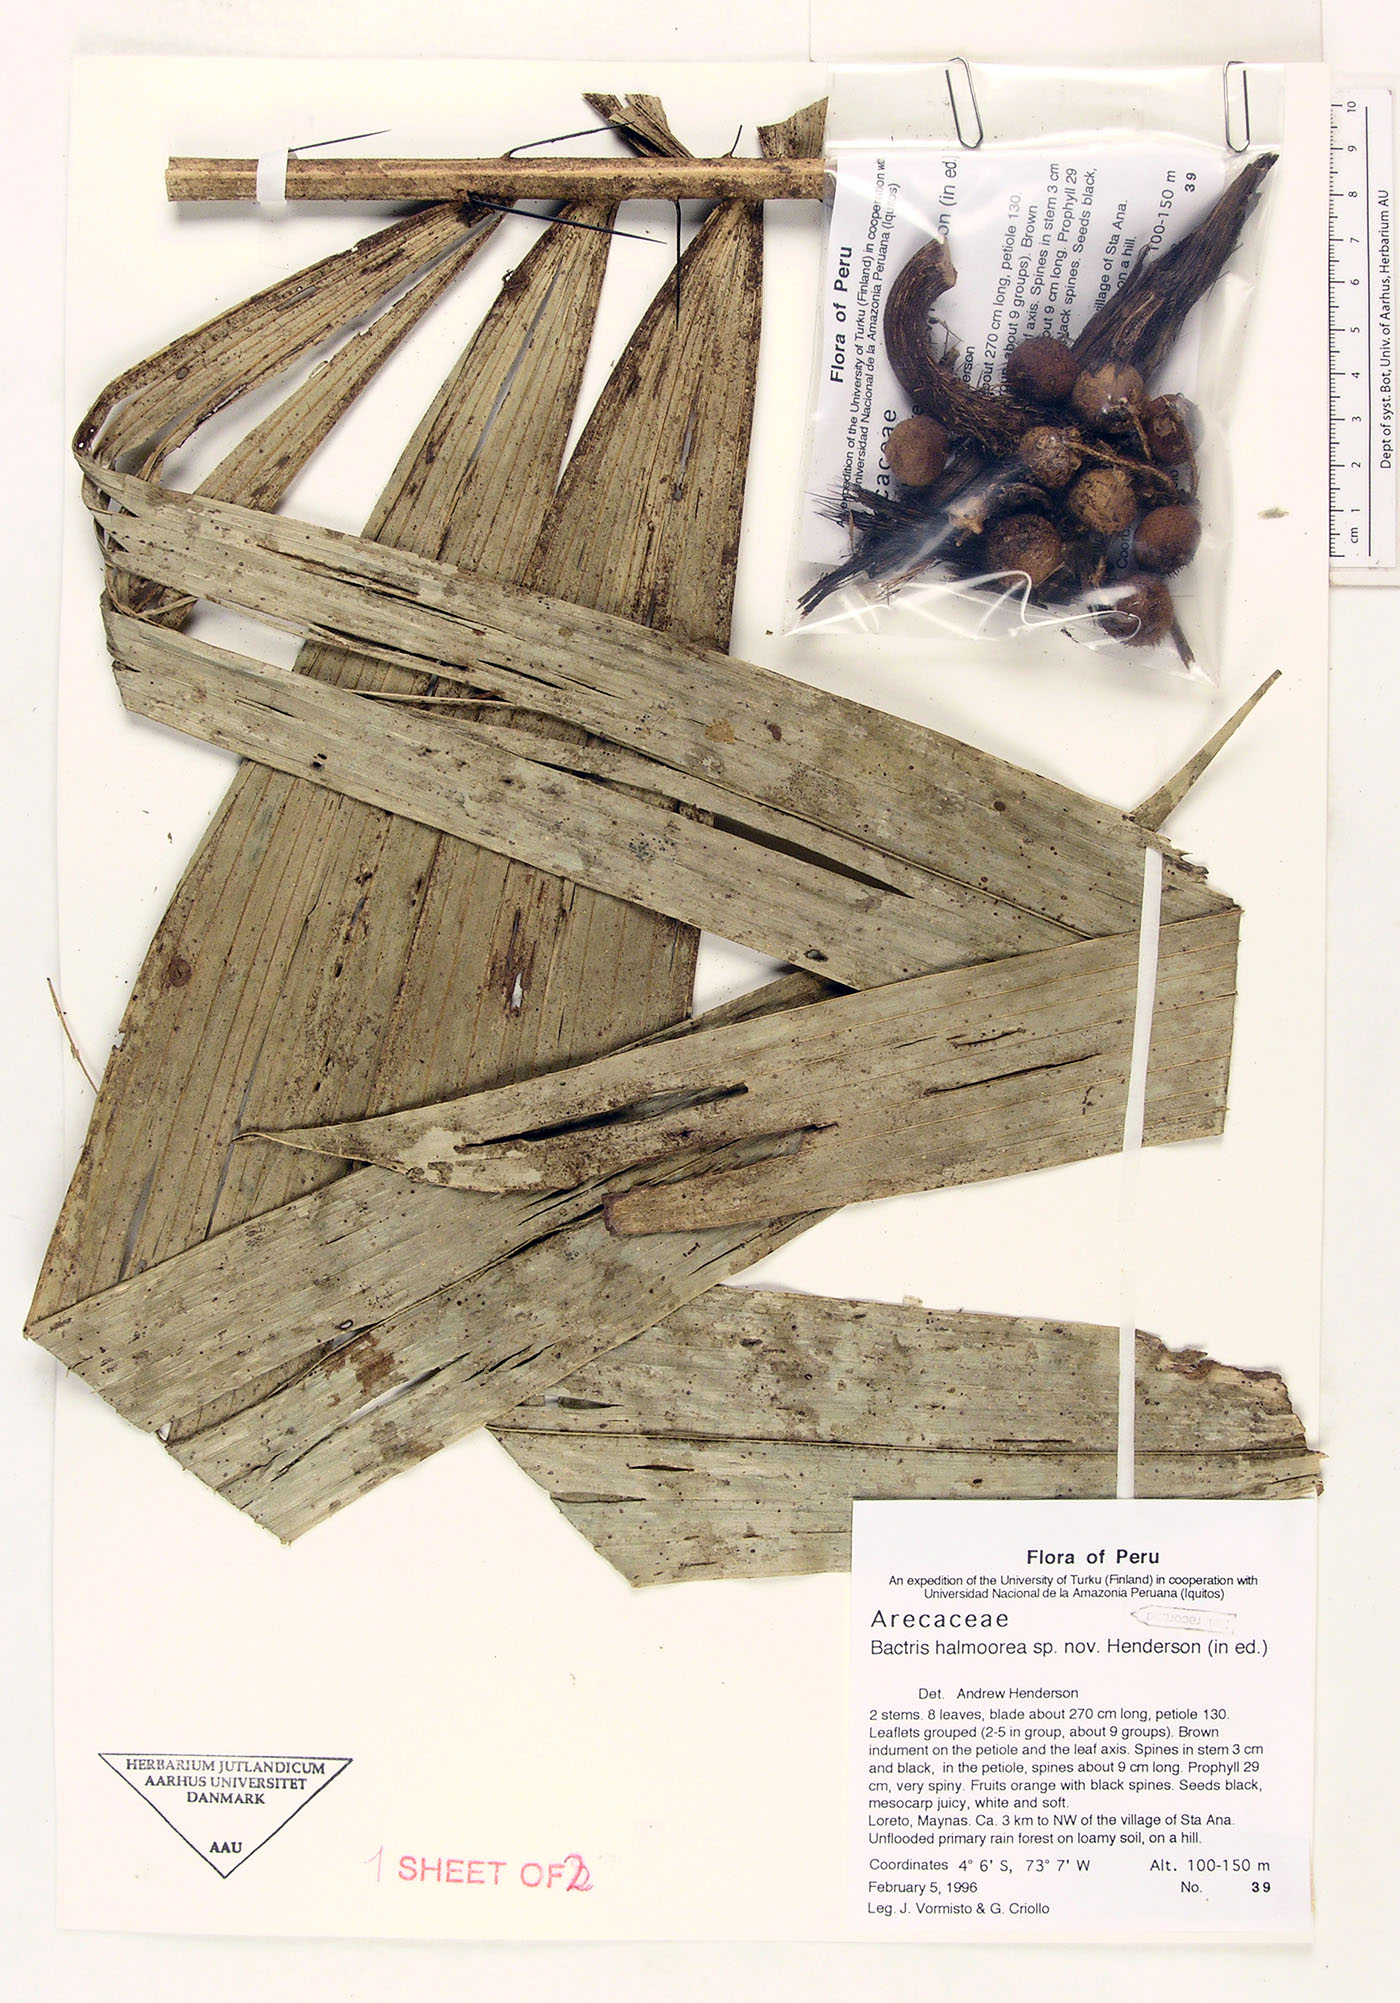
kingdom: Plantae
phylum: Tracheophyta
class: Liliopsida
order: Arecales
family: Arecaceae
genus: Bactris
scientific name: Bactris halmoorei
